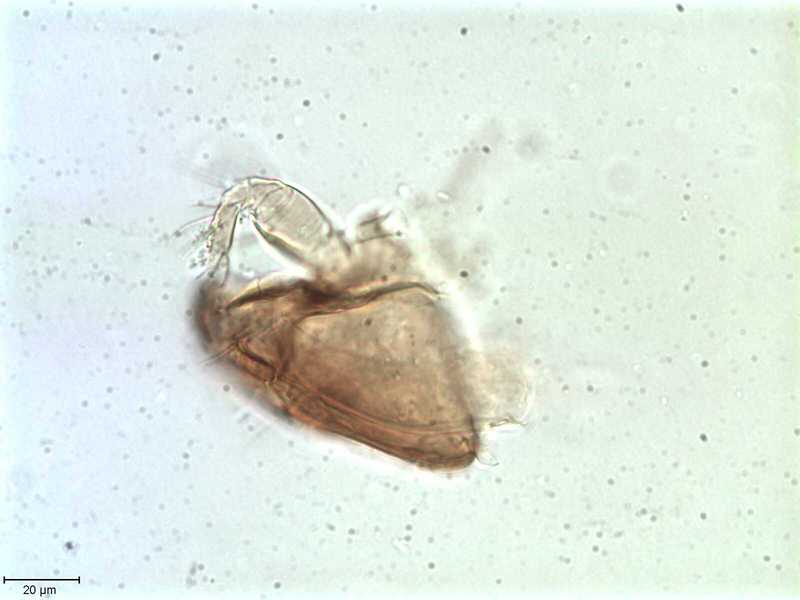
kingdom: Animalia
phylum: Arthropoda
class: Arachnida
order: Sarcoptiformes
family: Tegoribatidae
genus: Plakoribates
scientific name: Plakoribates multicuspidatus
